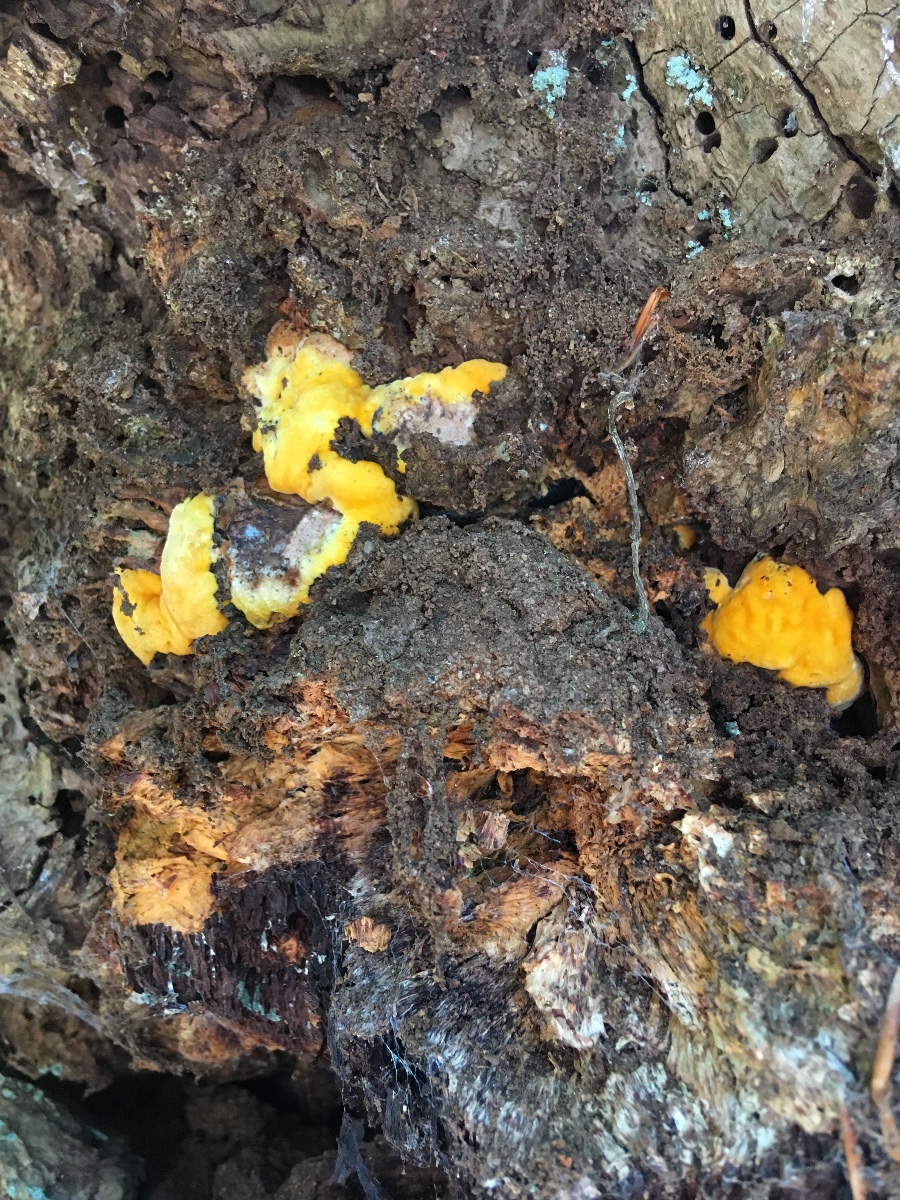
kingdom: Fungi
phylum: Basidiomycota
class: Agaricomycetes
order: Polyporales
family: Phanerochaetaceae
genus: Hapalopilus
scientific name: Hapalopilus croceus
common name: safrangul pragtporesvamp
